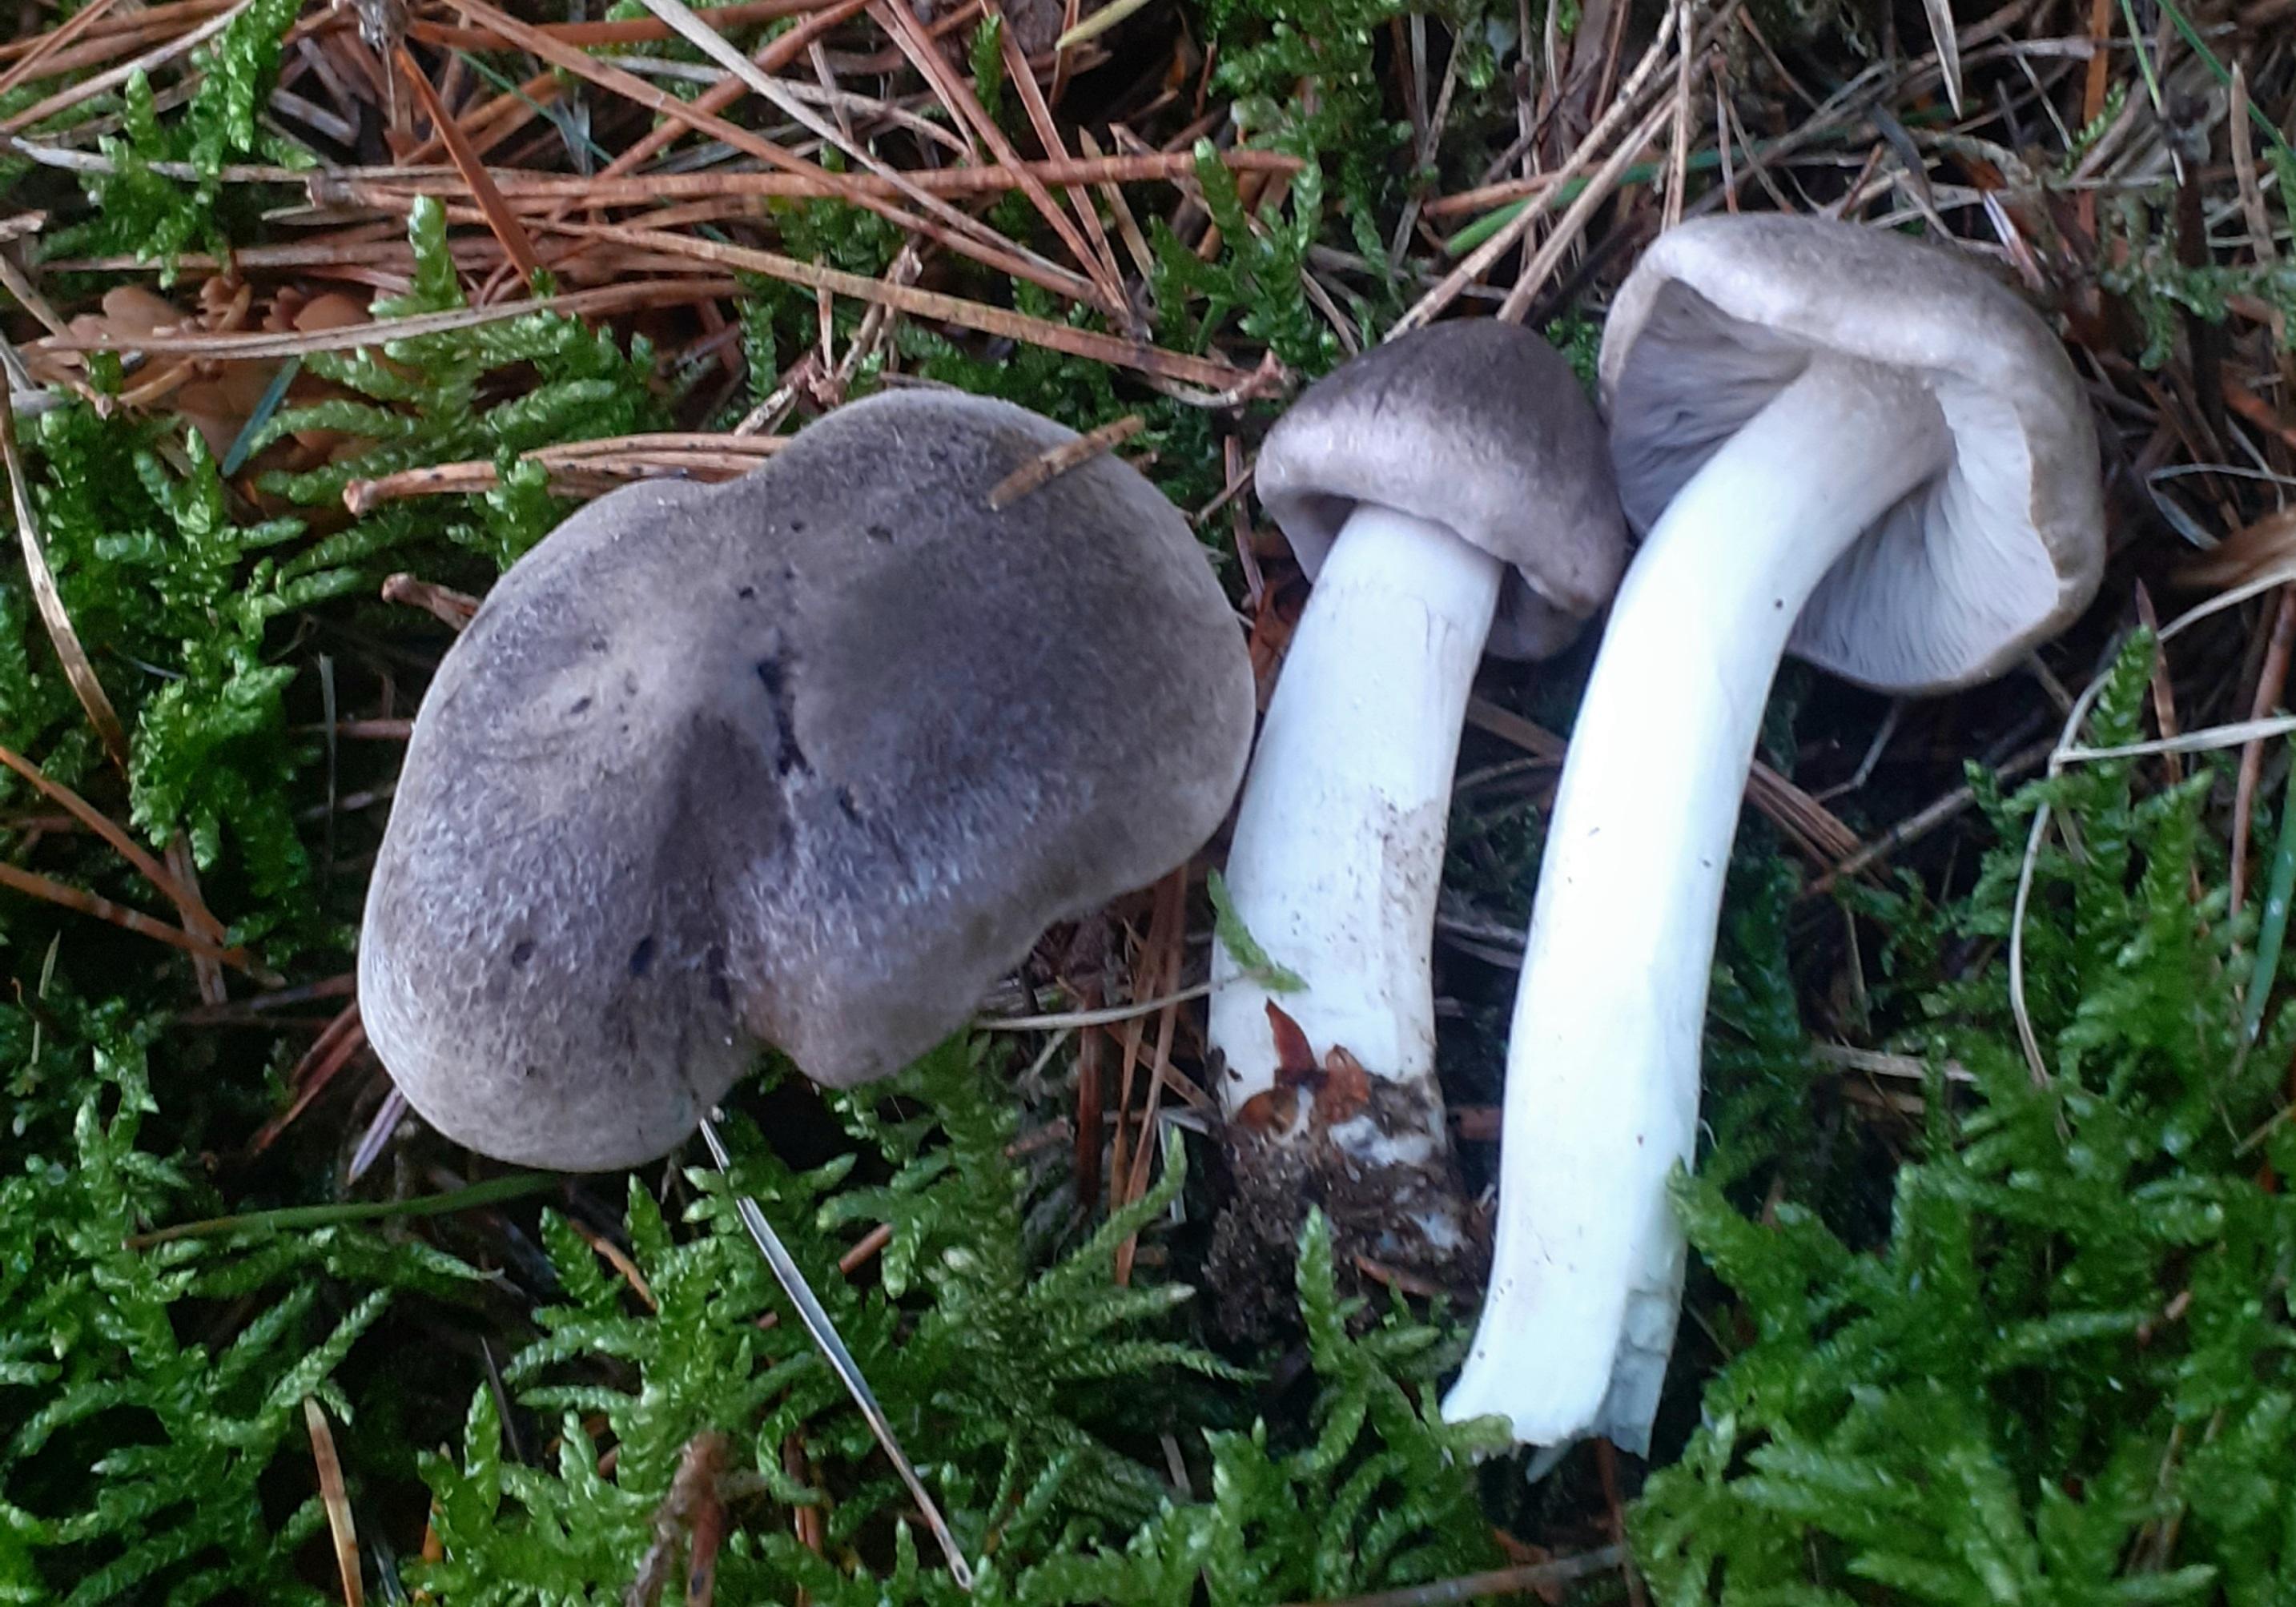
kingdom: Fungi
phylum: Basidiomycota
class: Agaricomycetes
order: Agaricales
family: Tricholomataceae
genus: Tricholoma
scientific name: Tricholoma terreum
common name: jordfarvet ridderhat
